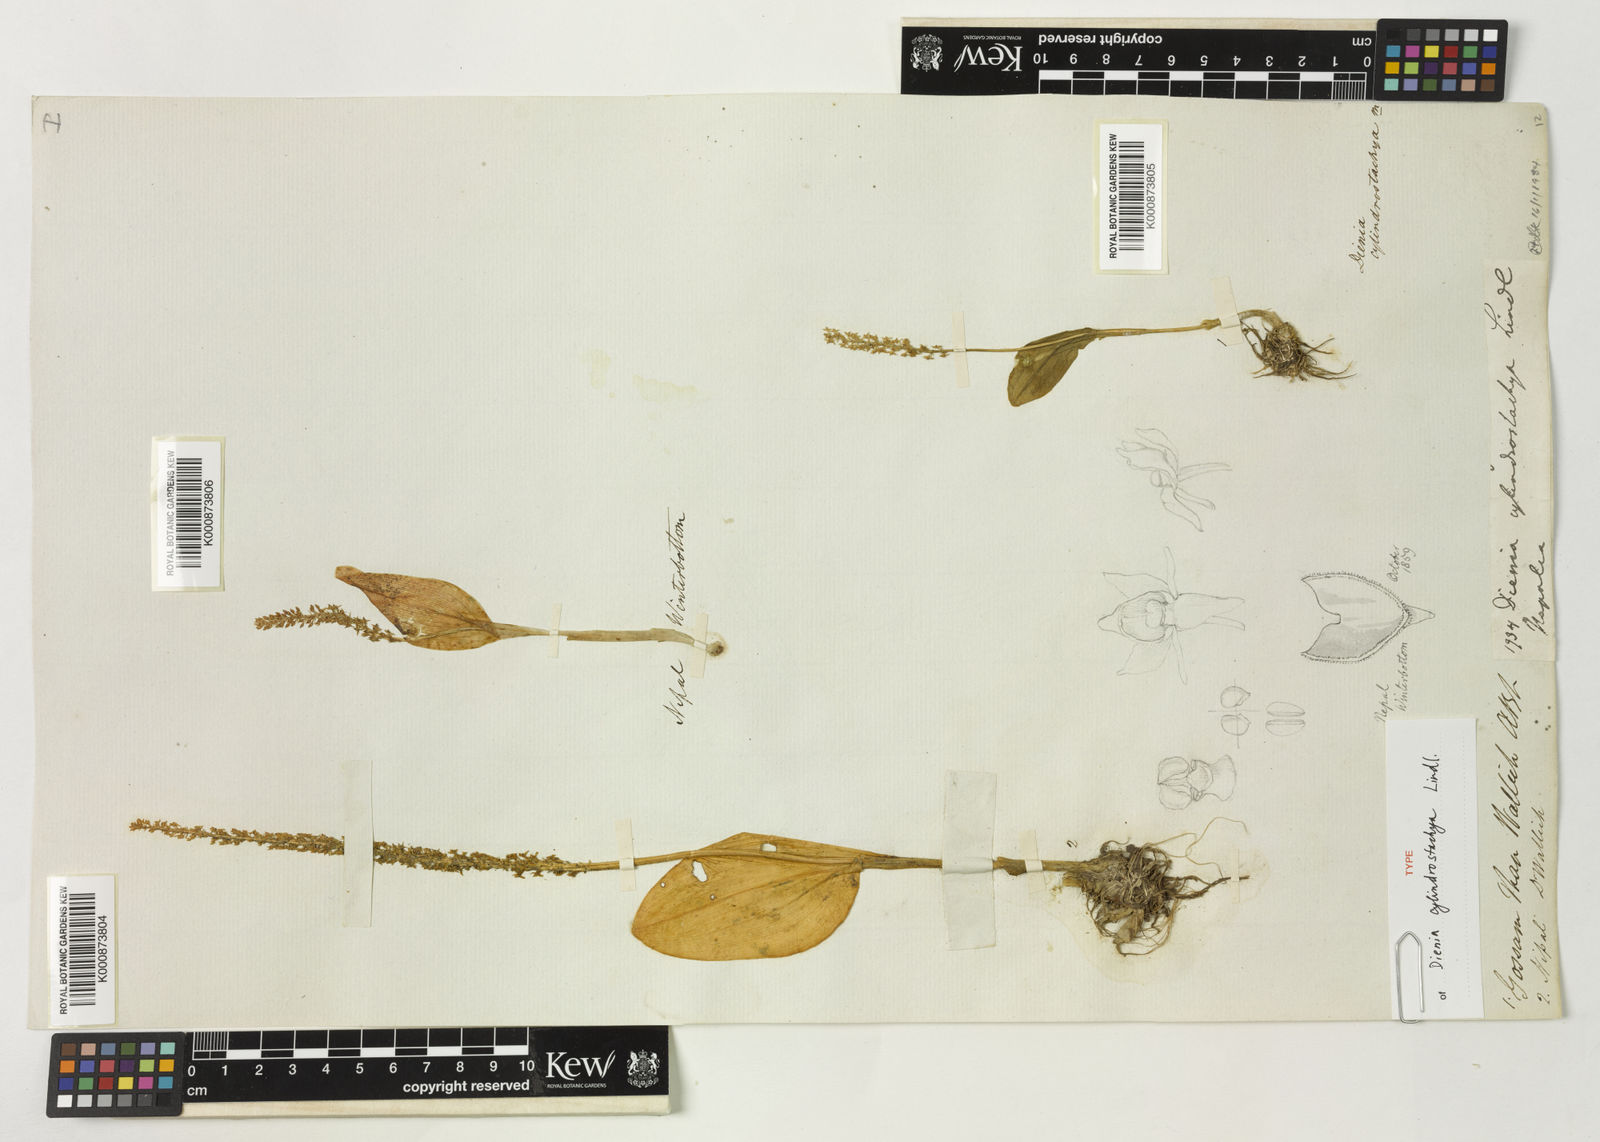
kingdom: Plantae
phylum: Tracheophyta
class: Liliopsida
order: Asparagales
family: Orchidaceae
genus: Dienia
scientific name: Dienia cylindrostachya
